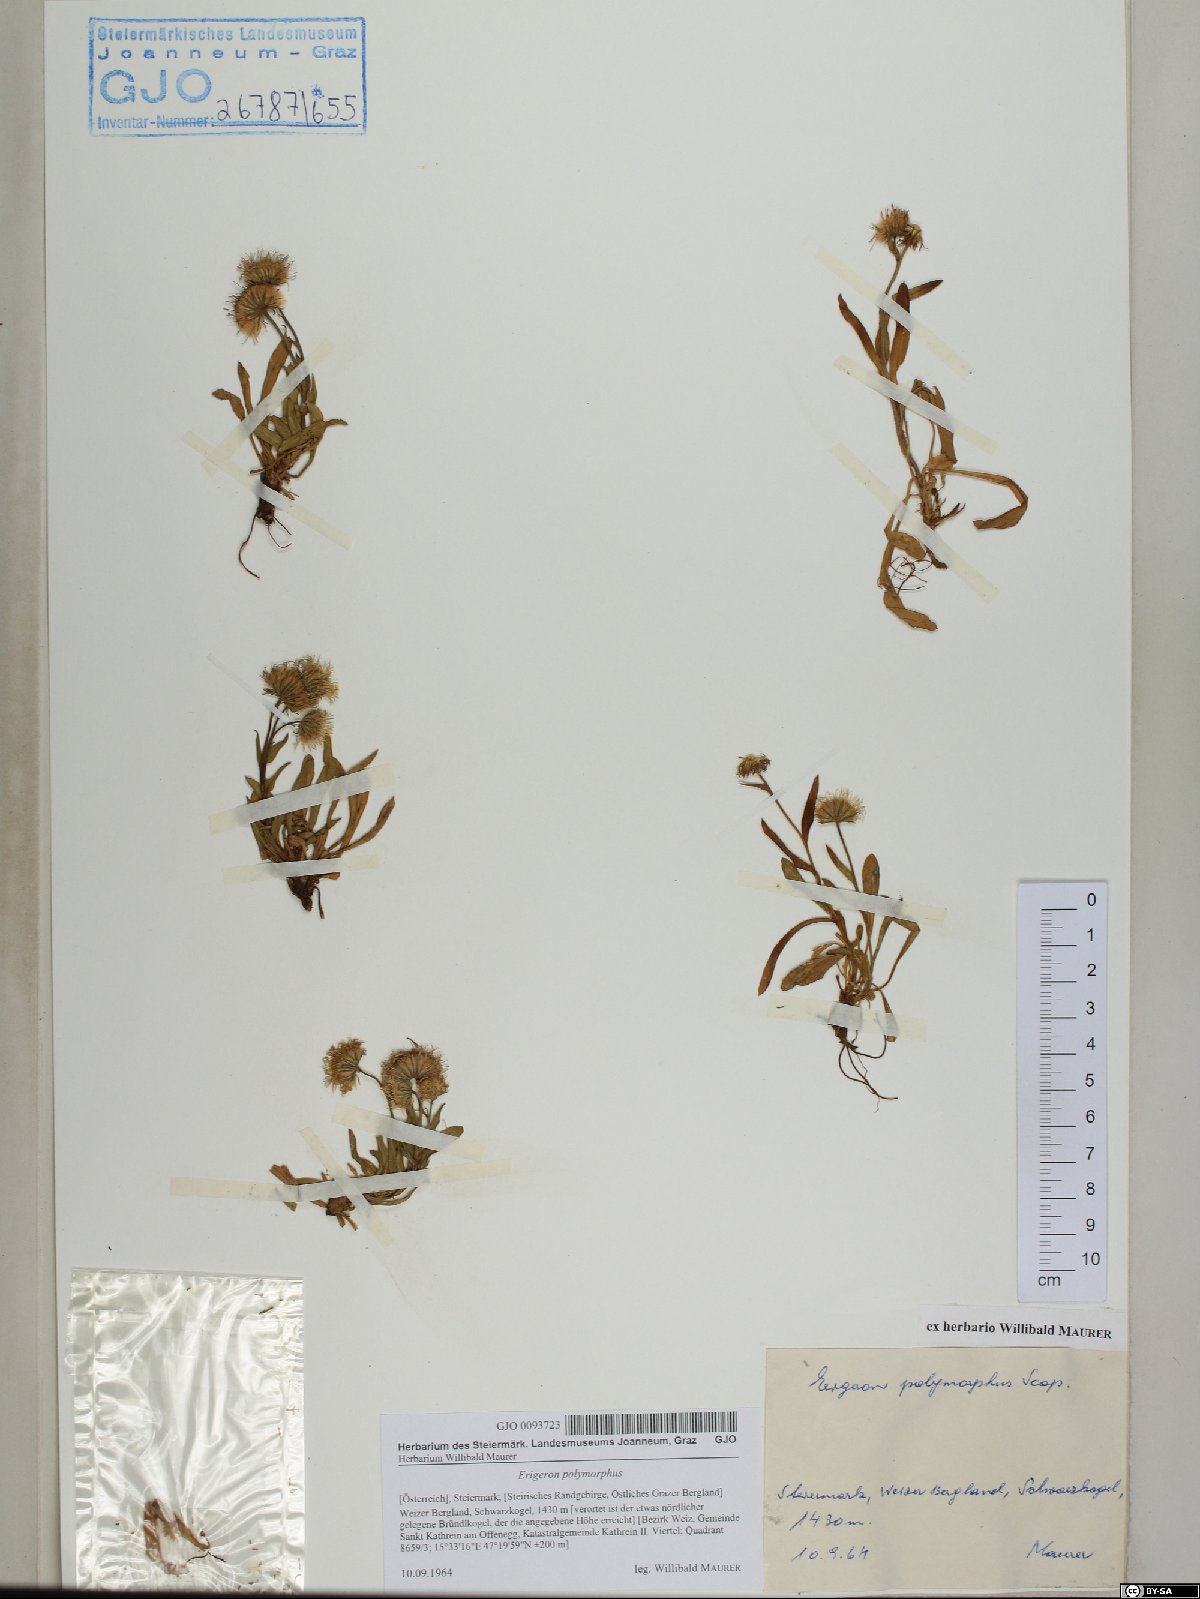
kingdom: Plantae
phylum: Tracheophyta
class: Magnoliopsida
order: Asterales
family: Asteraceae
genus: Erigeron
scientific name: Erigeron alpinus
